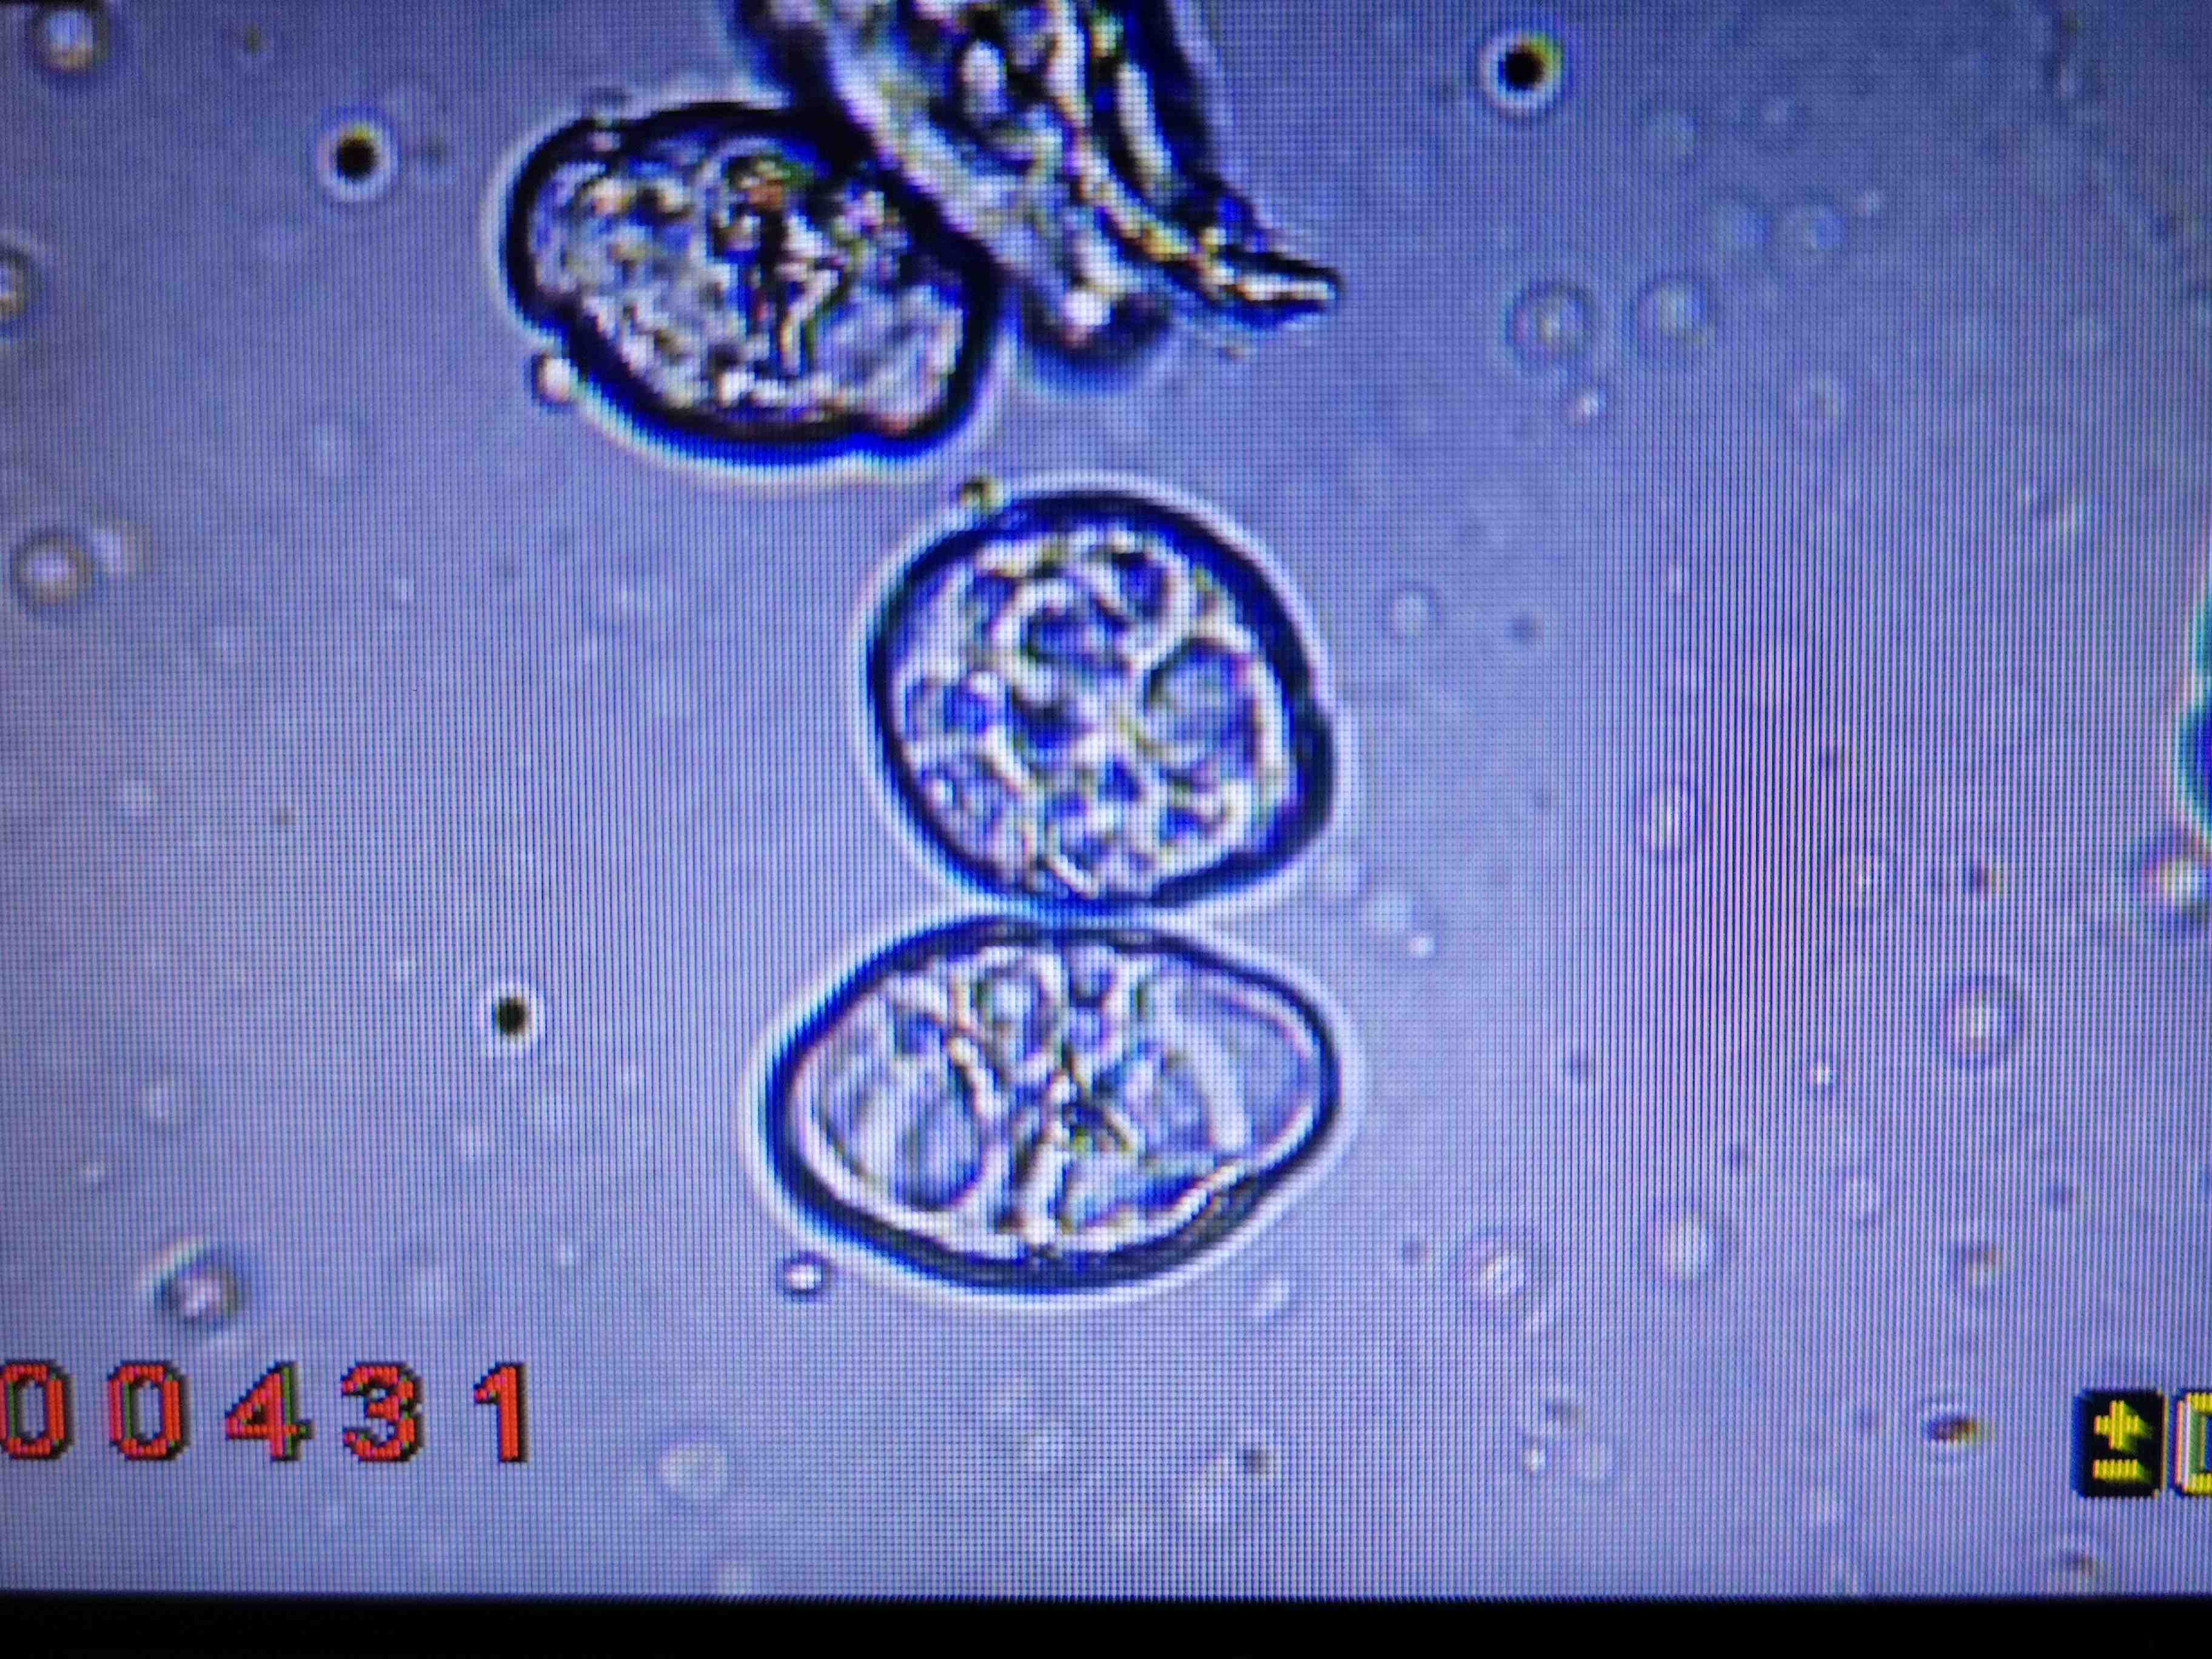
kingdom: Fungi
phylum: Ascomycota
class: Leotiomycetes
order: Helotiales
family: Erysiphaceae
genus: Podosphaera
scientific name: Podosphaera fugax
